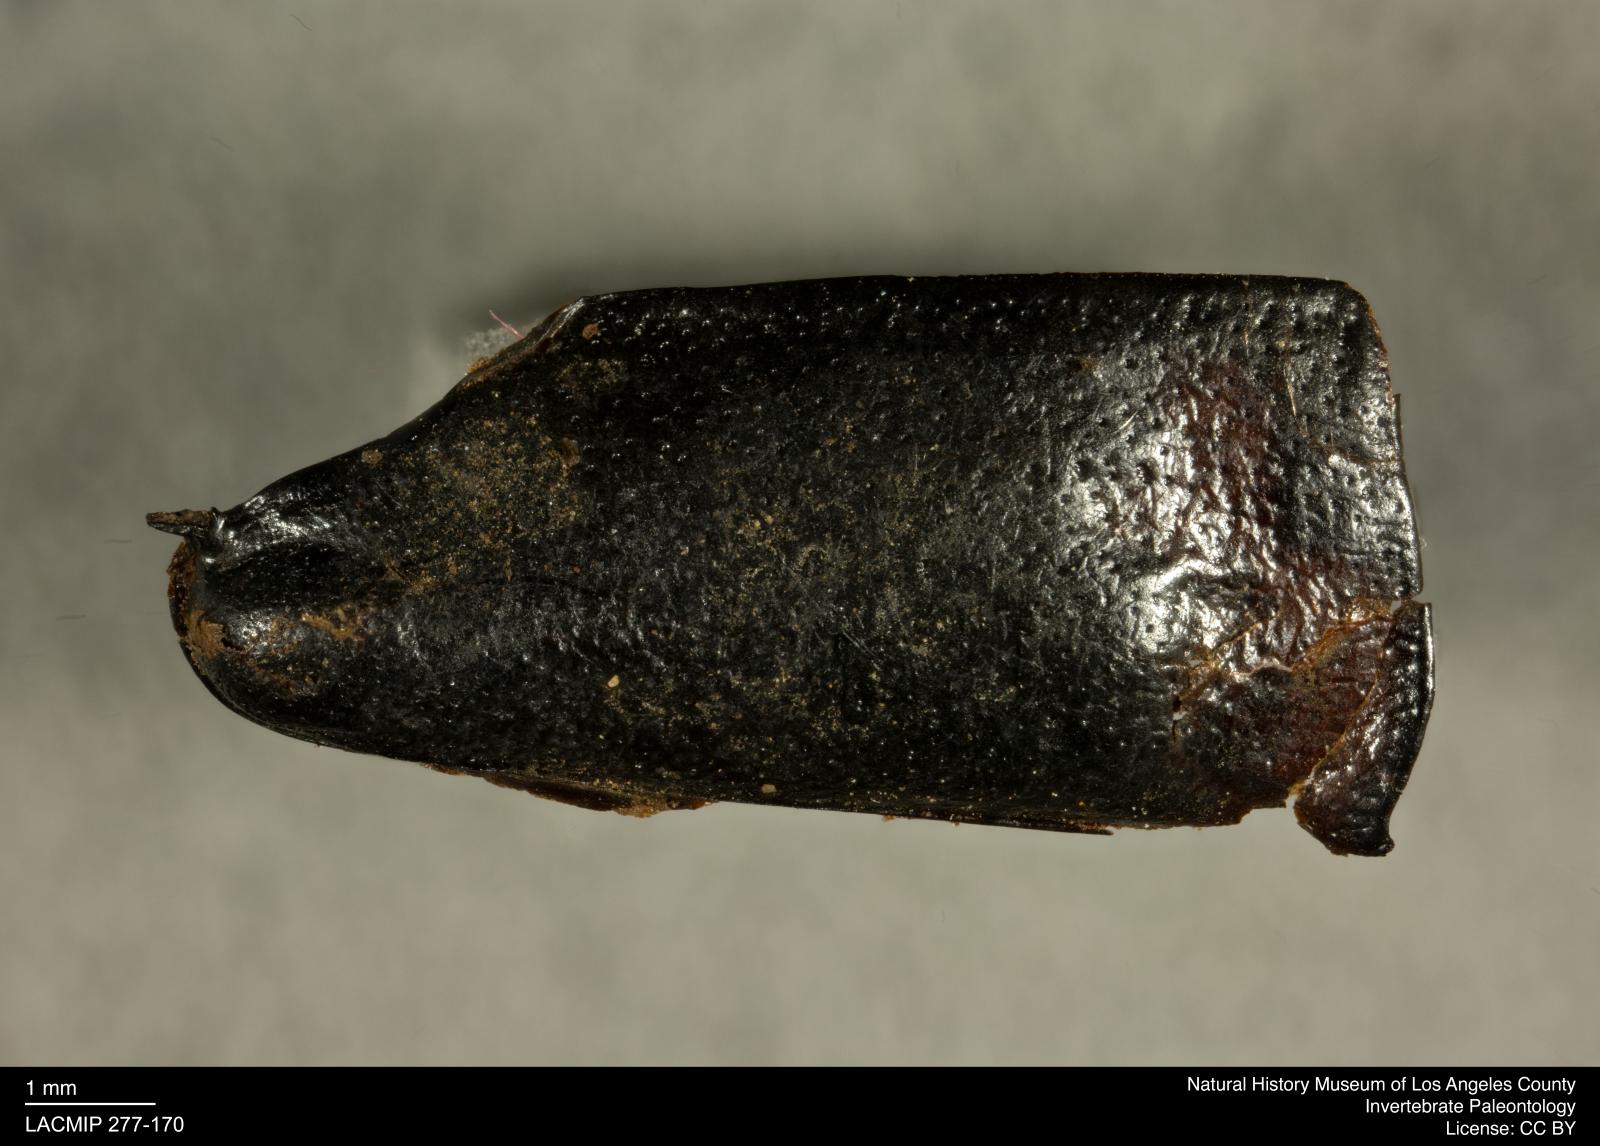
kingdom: Animalia
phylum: Arthropoda
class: Insecta
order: Coleoptera
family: Staphylinidae
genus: Nicrophorus
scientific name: Nicrophorus marginatus
